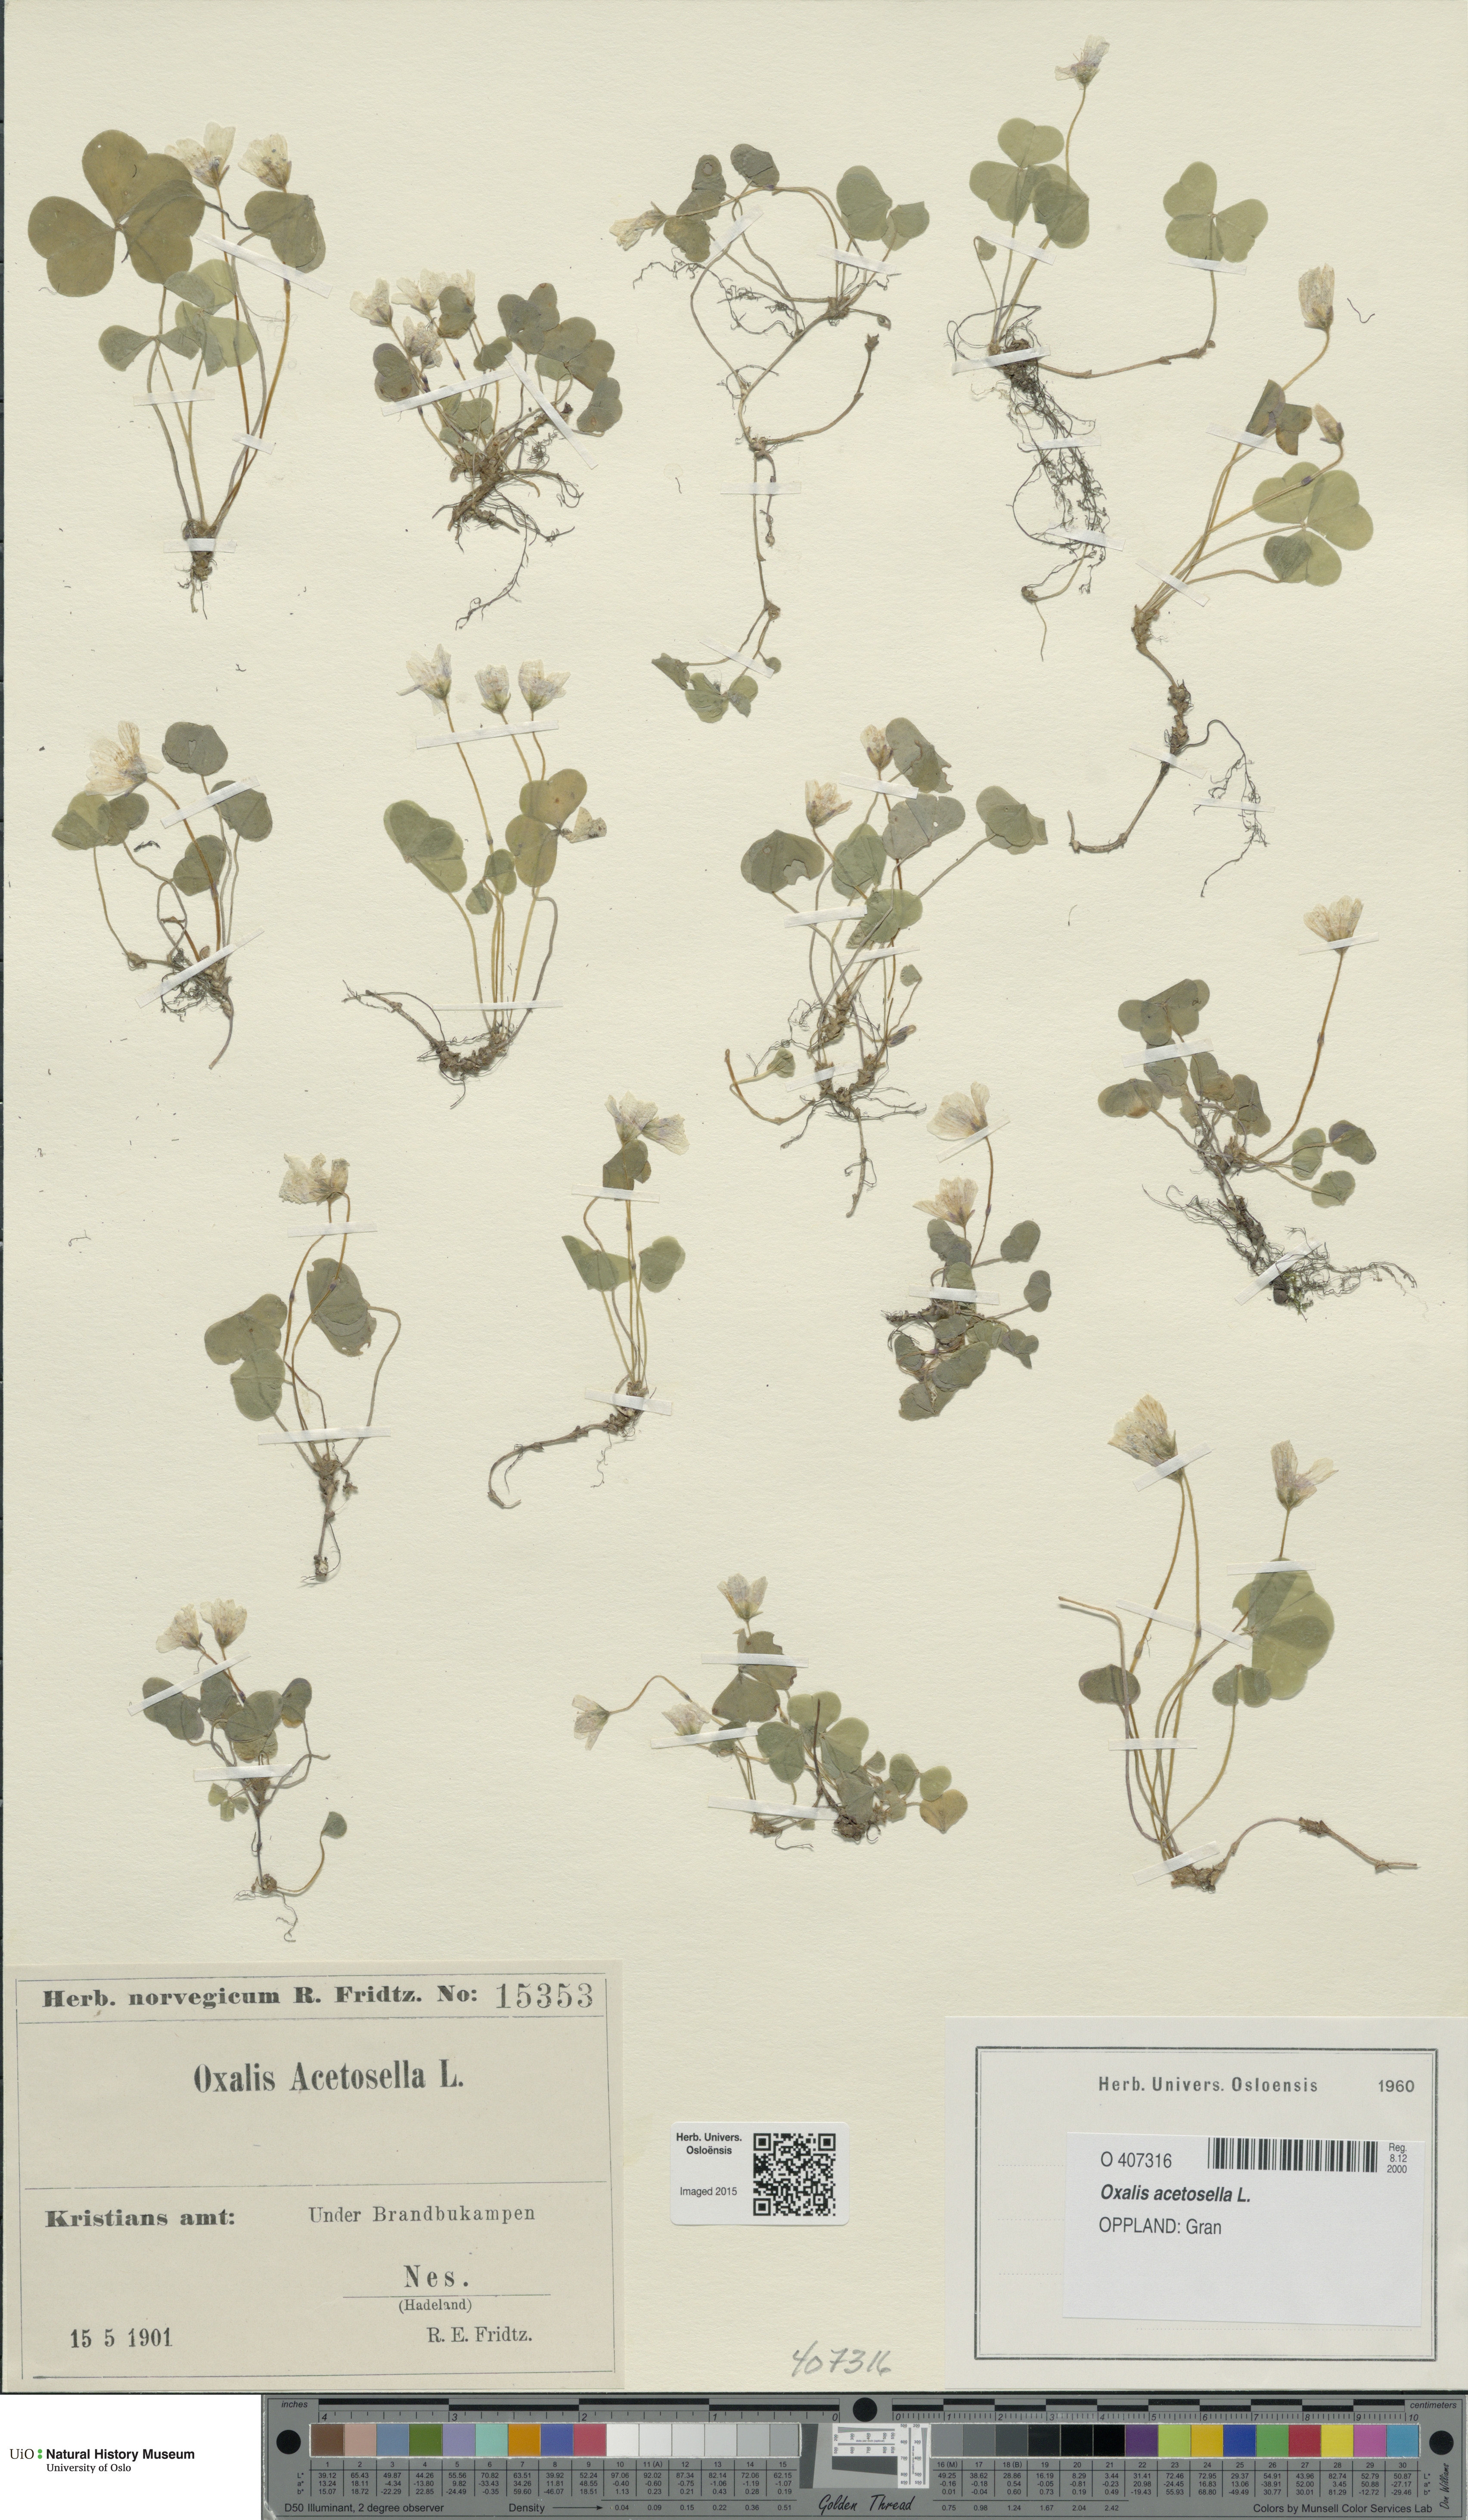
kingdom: Plantae
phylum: Tracheophyta
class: Magnoliopsida
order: Oxalidales
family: Oxalidaceae
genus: Oxalis
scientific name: Oxalis acetosella
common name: Wood-sorrel
